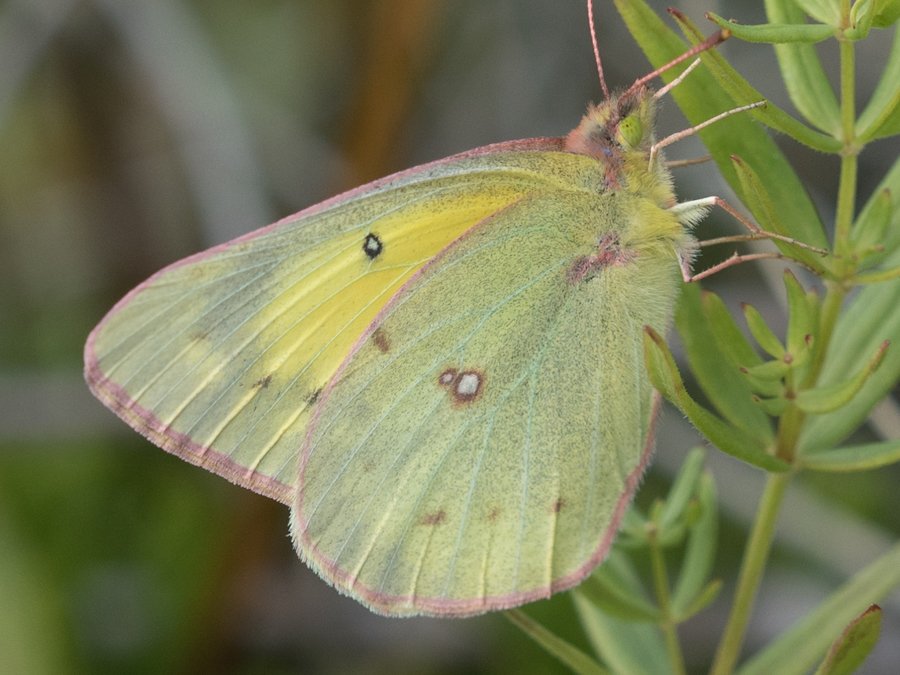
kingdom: Animalia
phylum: Arthropoda
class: Insecta
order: Lepidoptera
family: Pieridae
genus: Colias
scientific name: Colias philodice
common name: Clouded Sulphur
